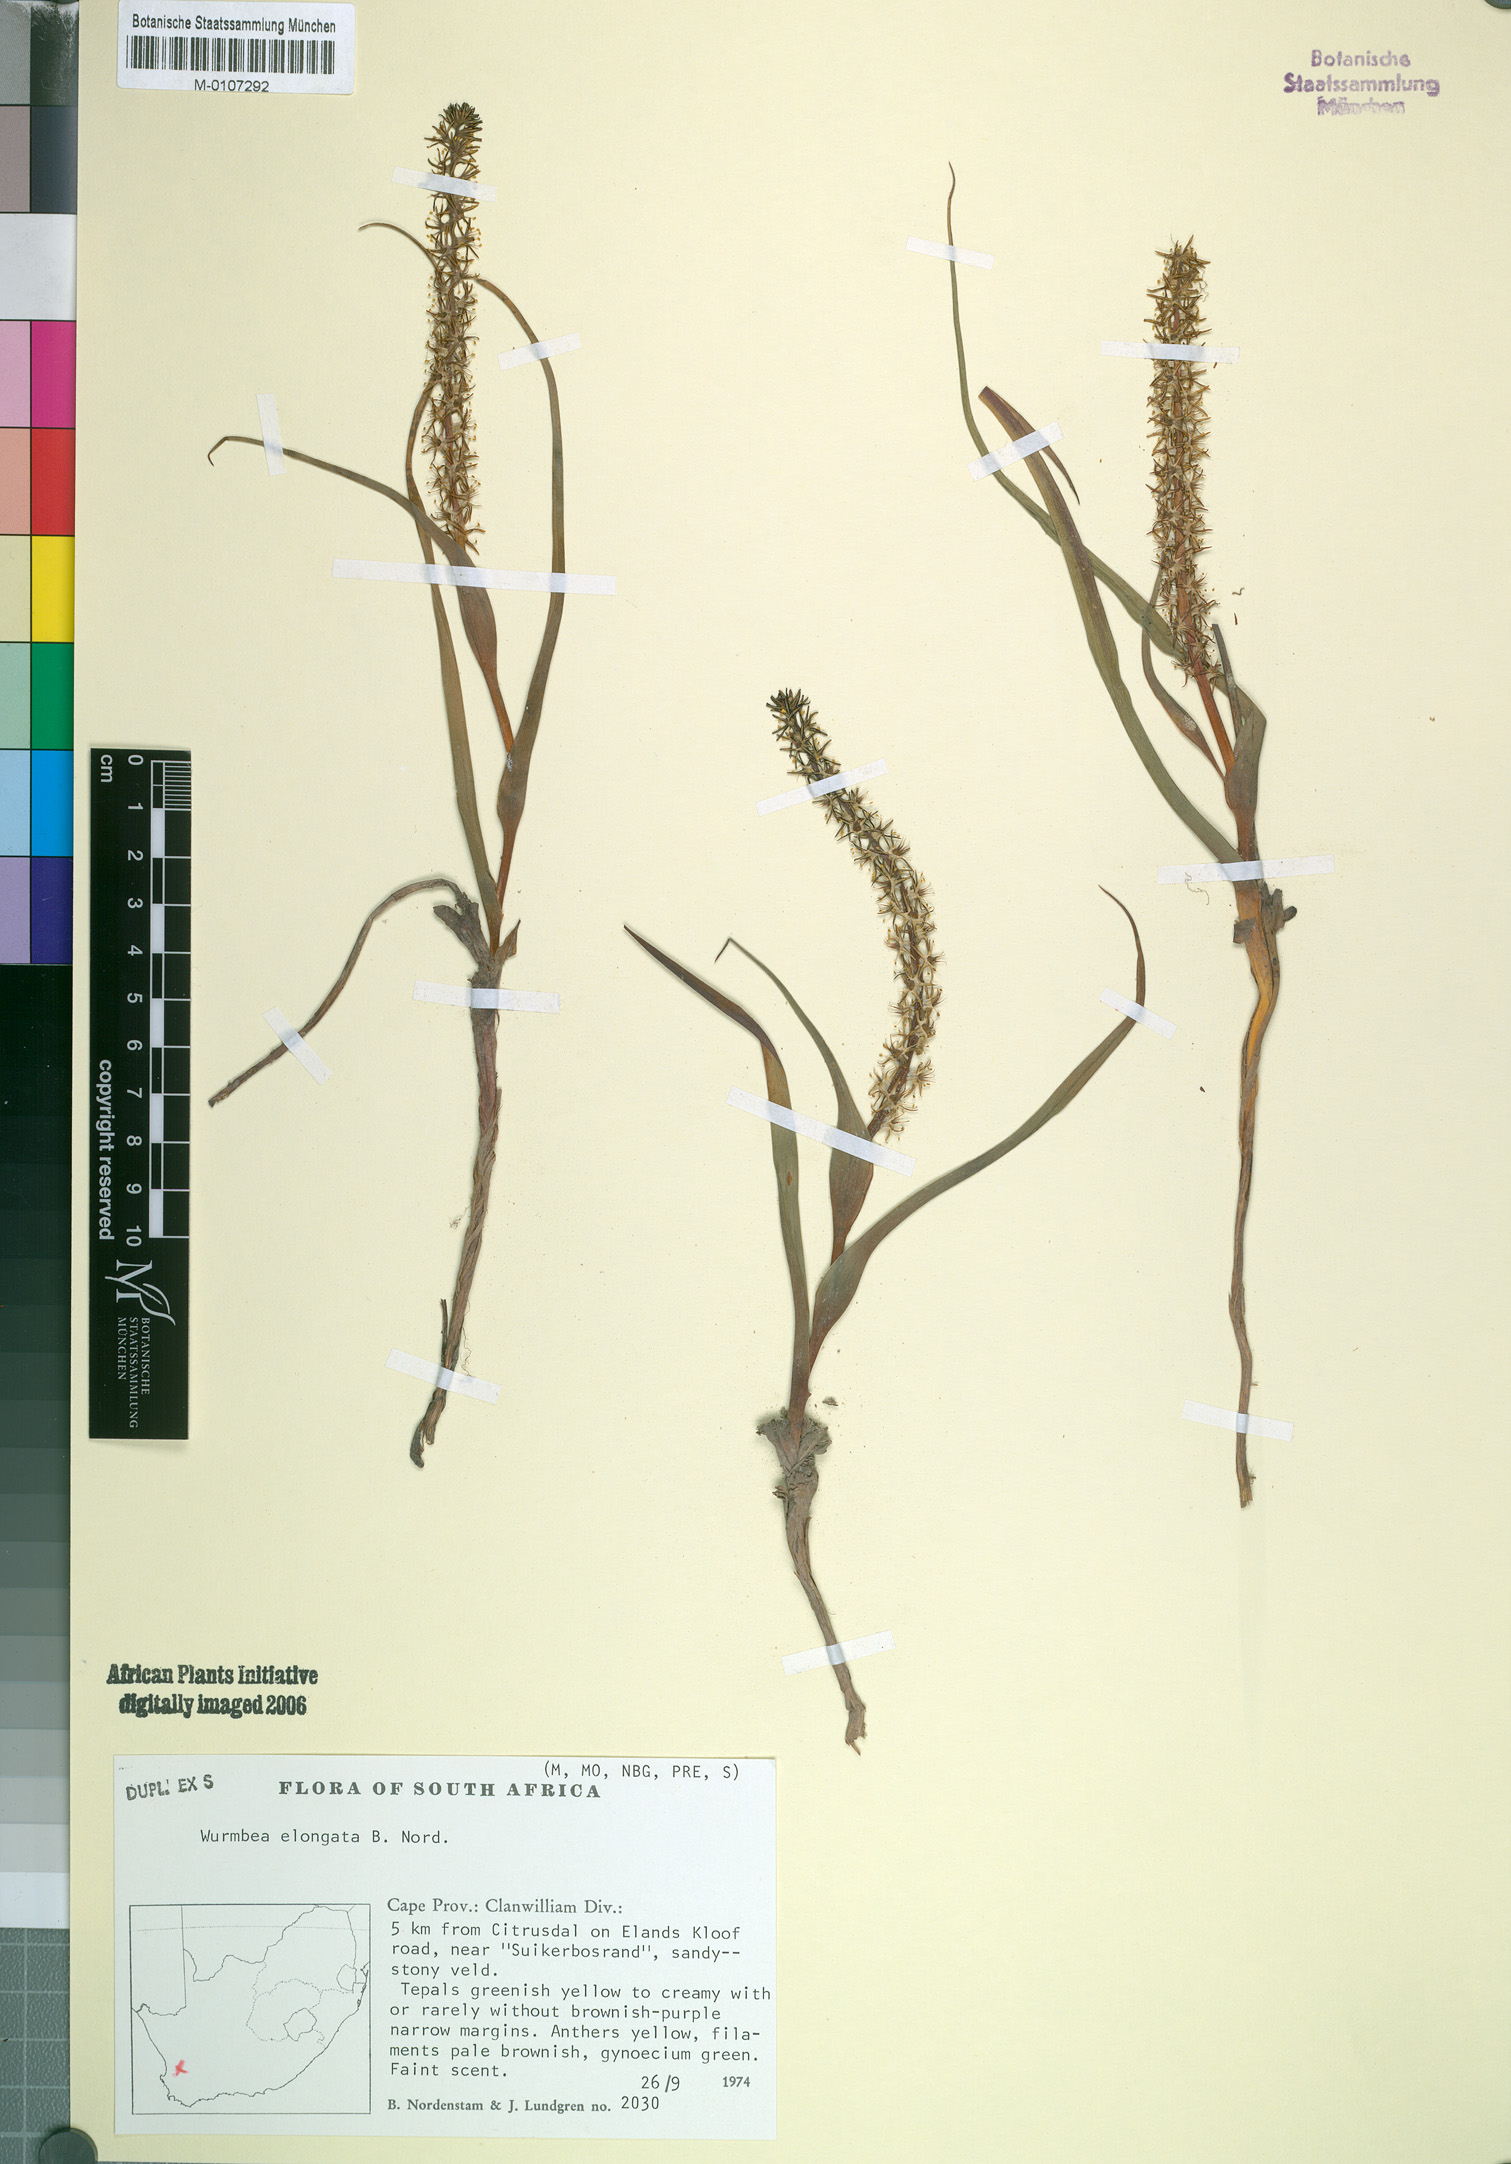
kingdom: Plantae
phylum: Tracheophyta
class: Liliopsida
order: Liliales
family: Colchicaceae
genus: Wurmbea
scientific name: Wurmbea elongata
